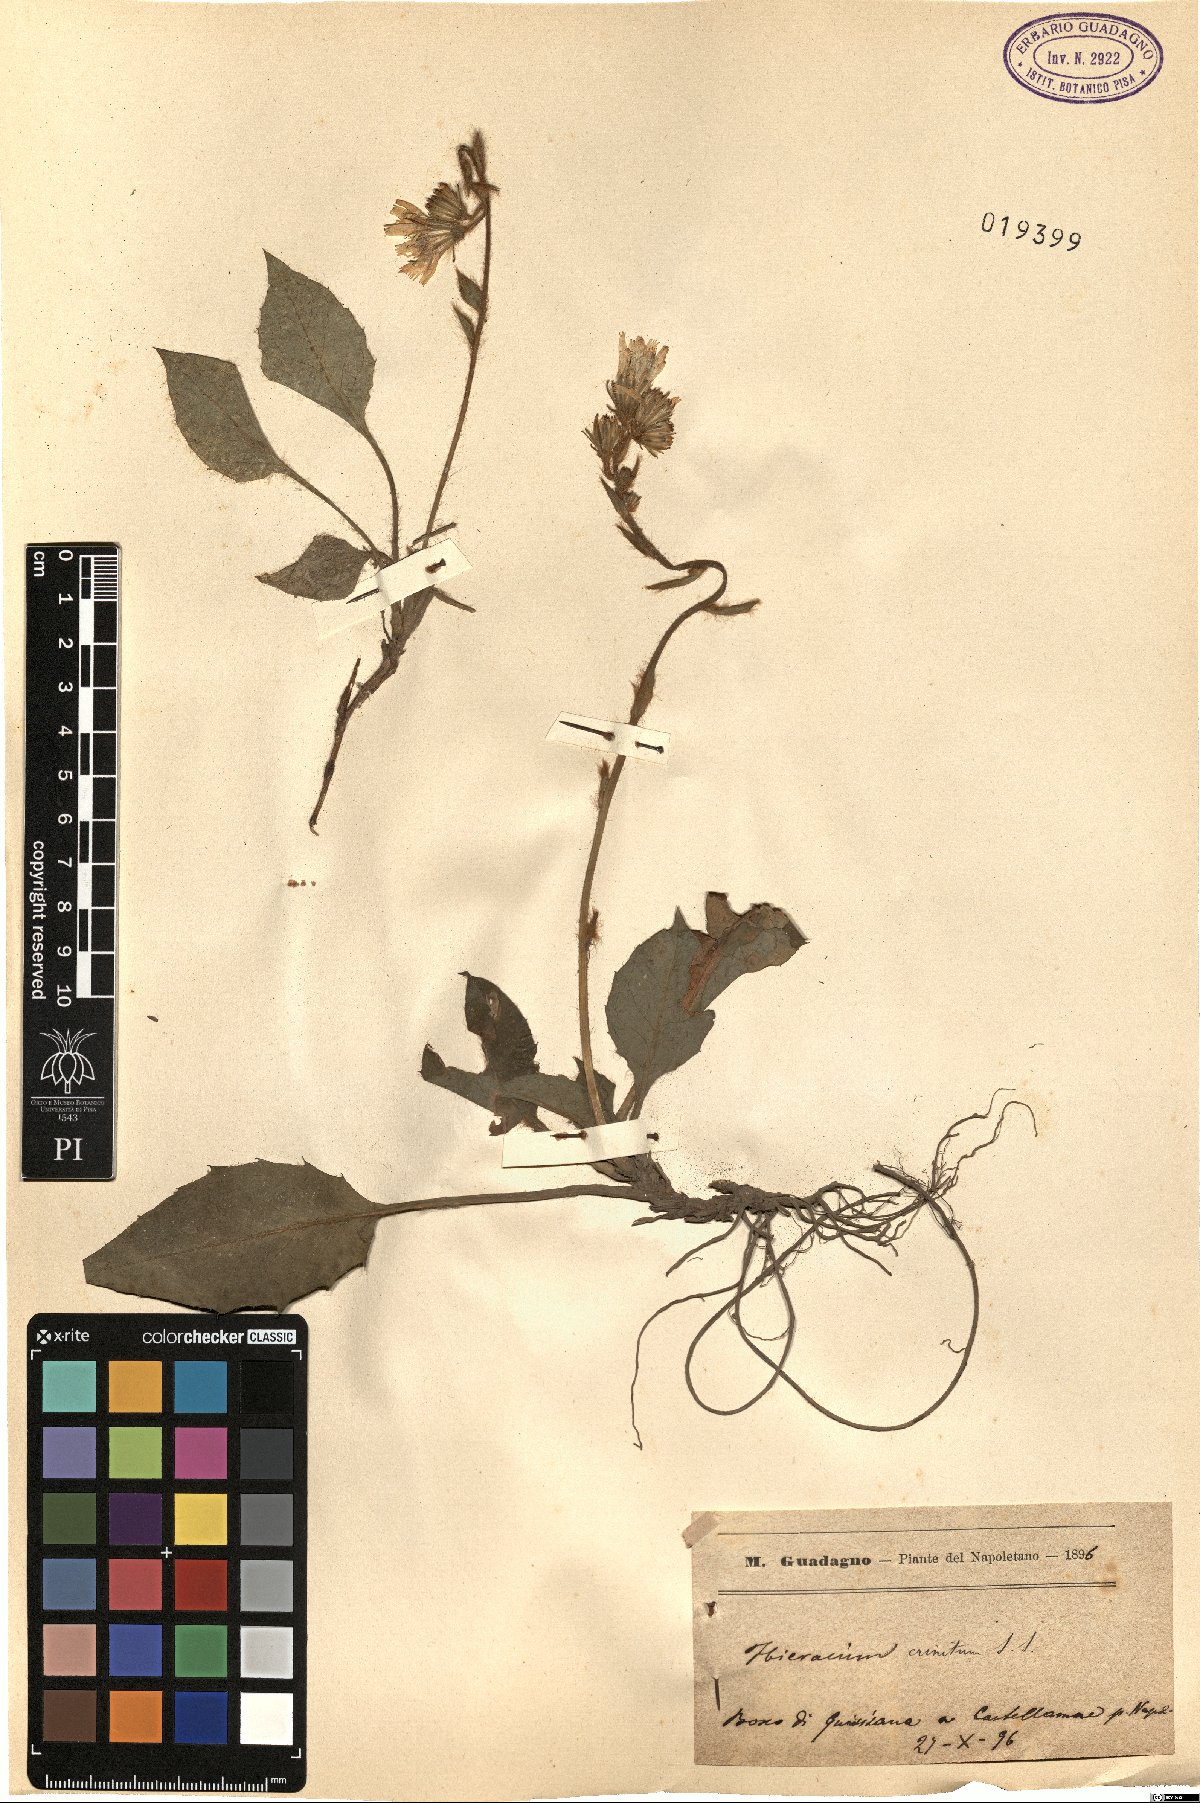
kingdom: Plantae
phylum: Tracheophyta
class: Magnoliopsida
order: Asterales
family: Asteraceae
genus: Hieracium
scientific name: Hieracium racemosum
